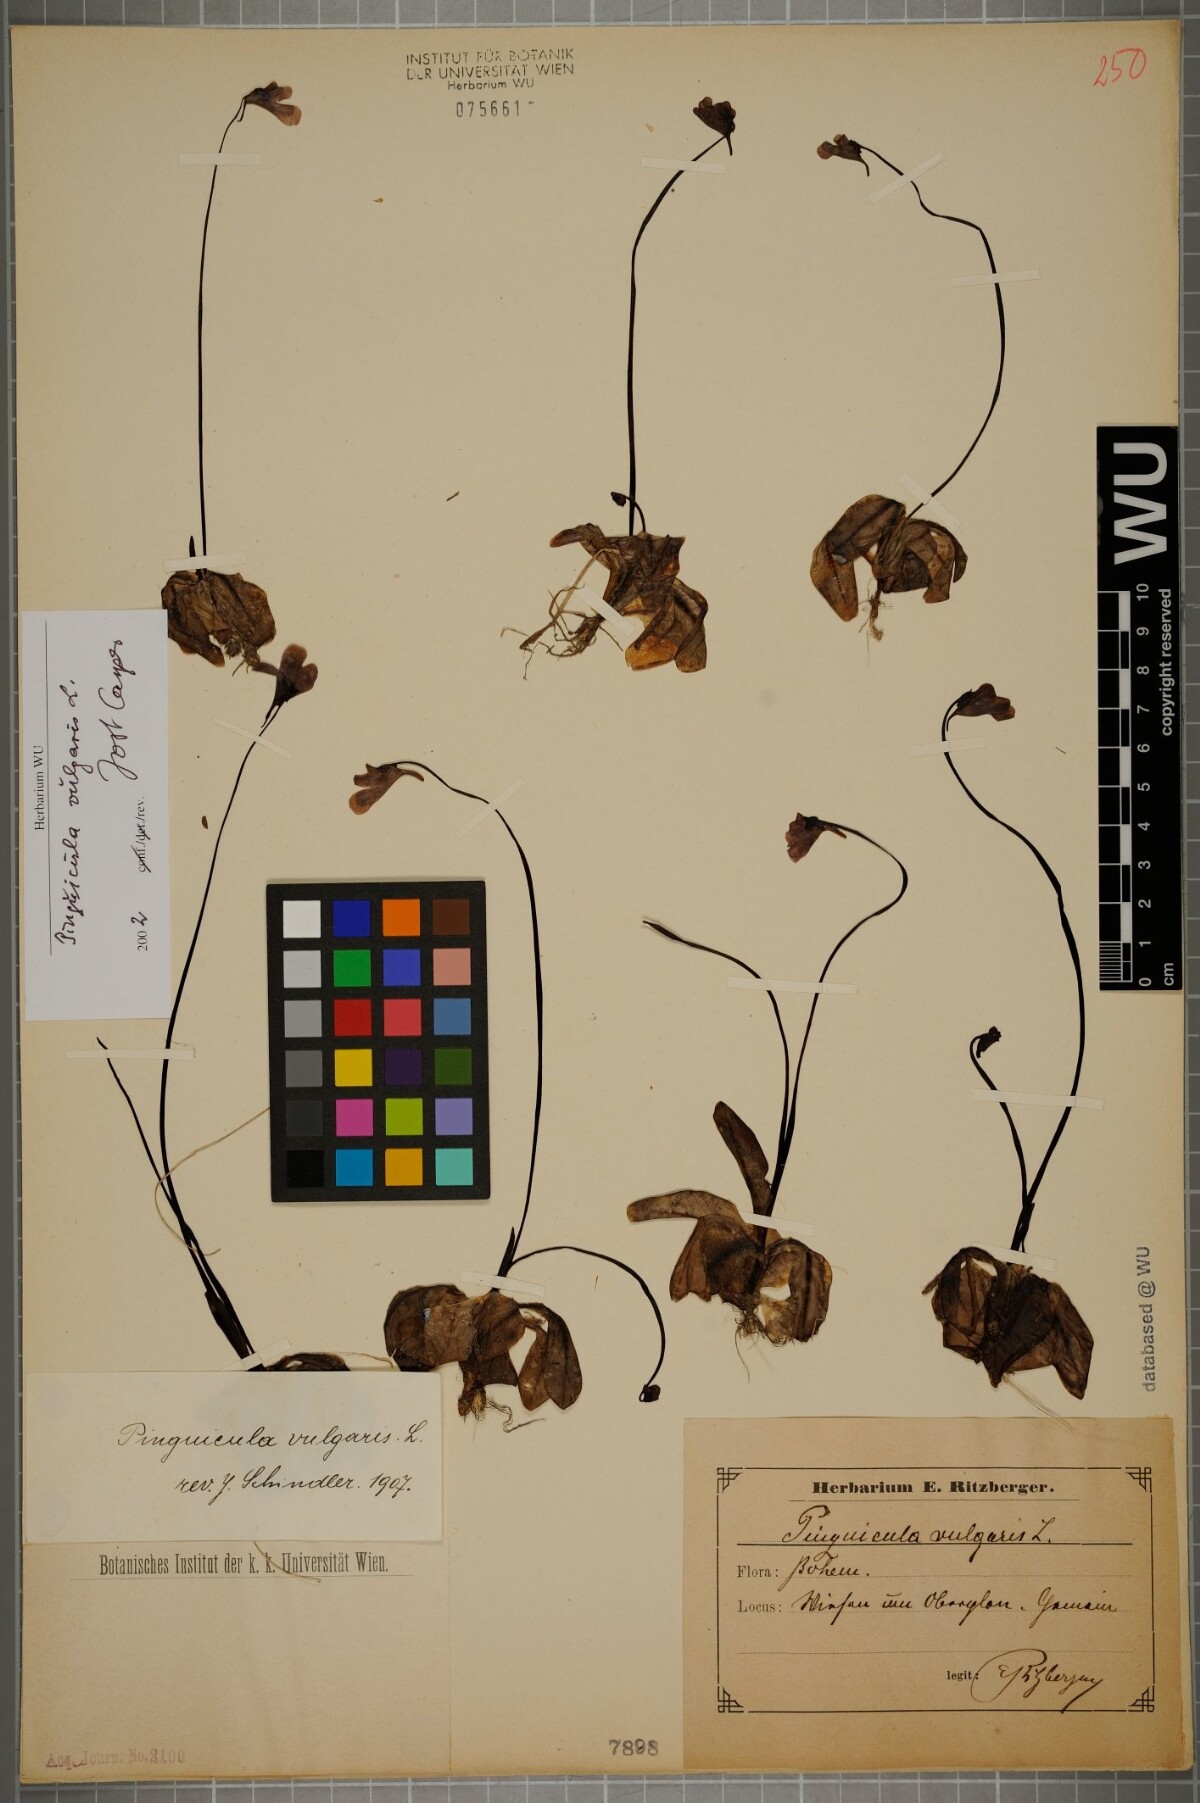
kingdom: Plantae
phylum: Tracheophyta
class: Magnoliopsida
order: Lamiales
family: Lentibulariaceae
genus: Pinguicula
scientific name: Pinguicula vulgaris
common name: Common butterwort
